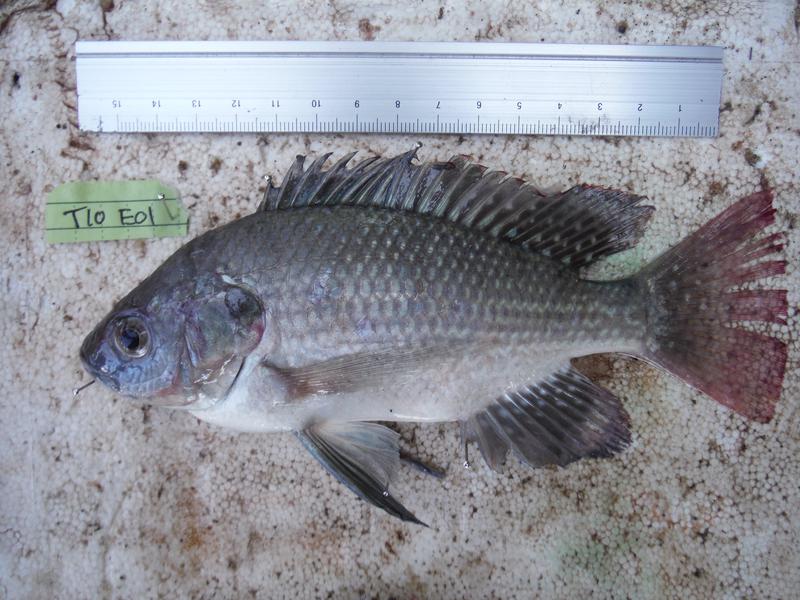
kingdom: Animalia
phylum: Chordata
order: Perciformes
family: Cichlidae
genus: Oreochromis
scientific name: Oreochromis esculentus
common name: Carp
